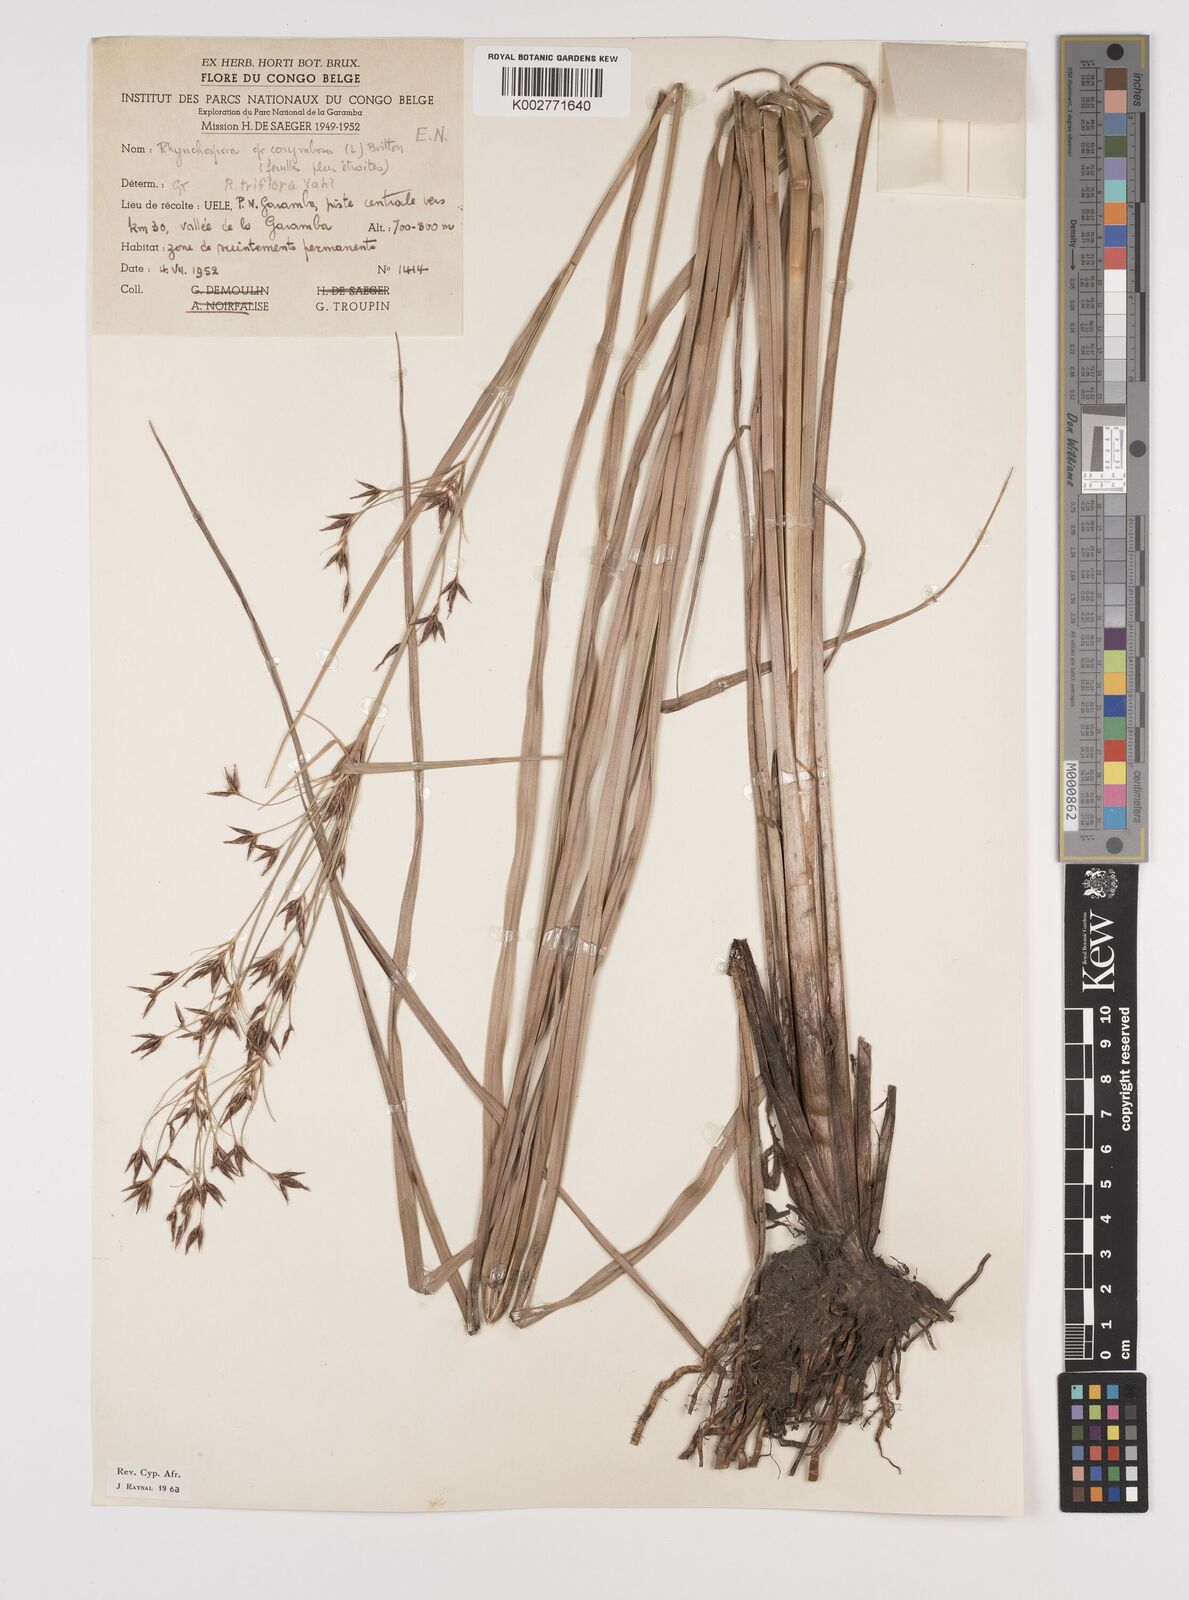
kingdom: Plantae
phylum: Tracheophyta
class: Liliopsida
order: Poales
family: Cyperaceae
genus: Rhynchospora
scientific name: Rhynchospora triflora
